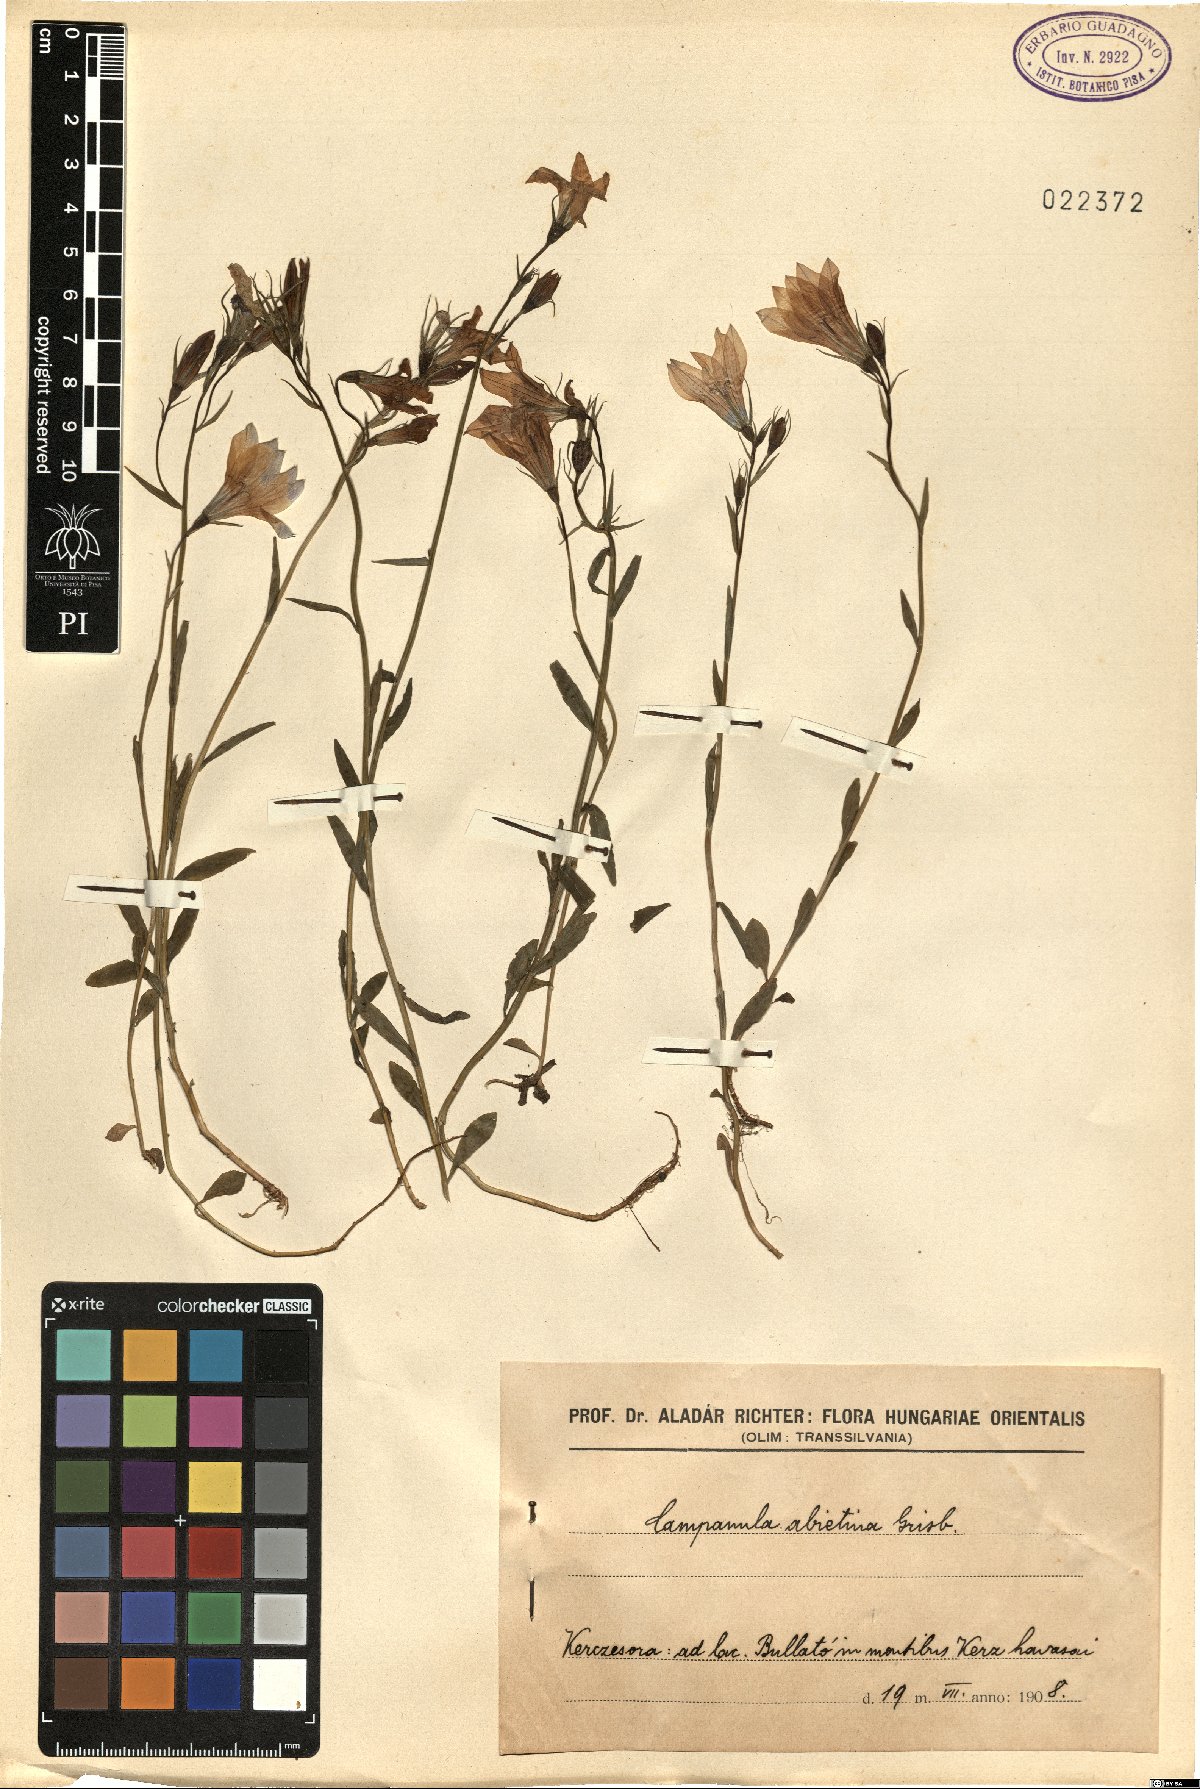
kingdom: Plantae
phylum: Tracheophyta
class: Magnoliopsida
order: Asterales
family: Campanulaceae
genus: Campanula
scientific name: Campanula patula
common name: Spreading bellflower
